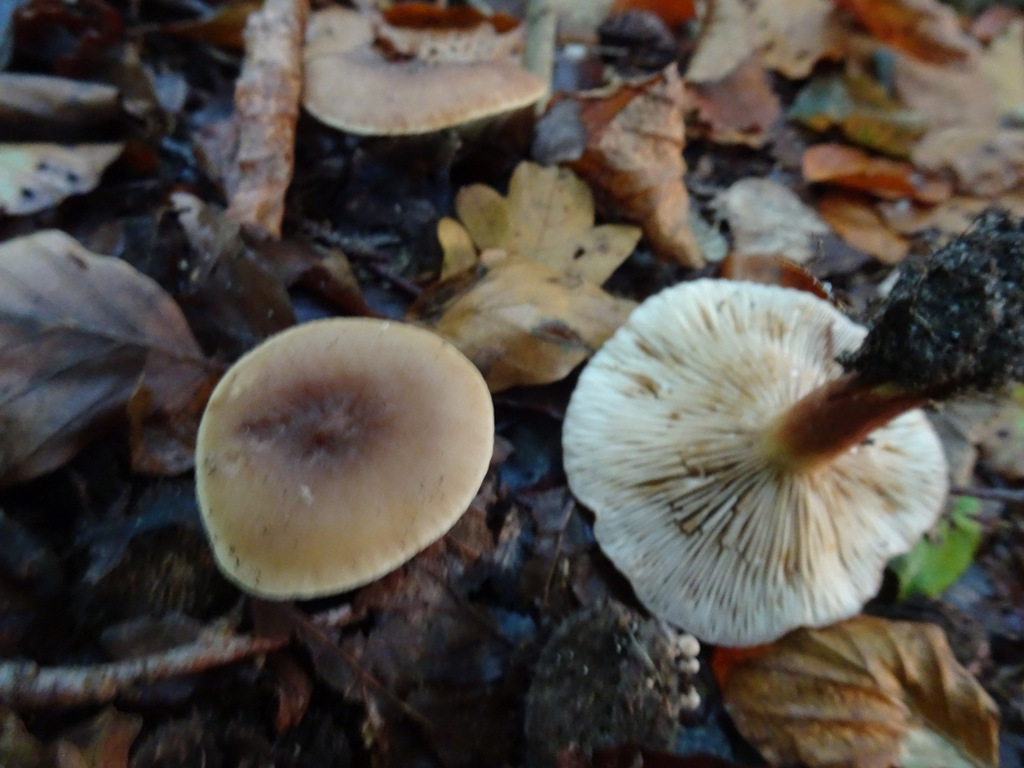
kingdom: Fungi
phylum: Basidiomycota
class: Agaricomycetes
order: Russulales
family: Russulaceae
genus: Lactarius
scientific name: Lactarius subdulcis
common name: sødlig mælkehat
